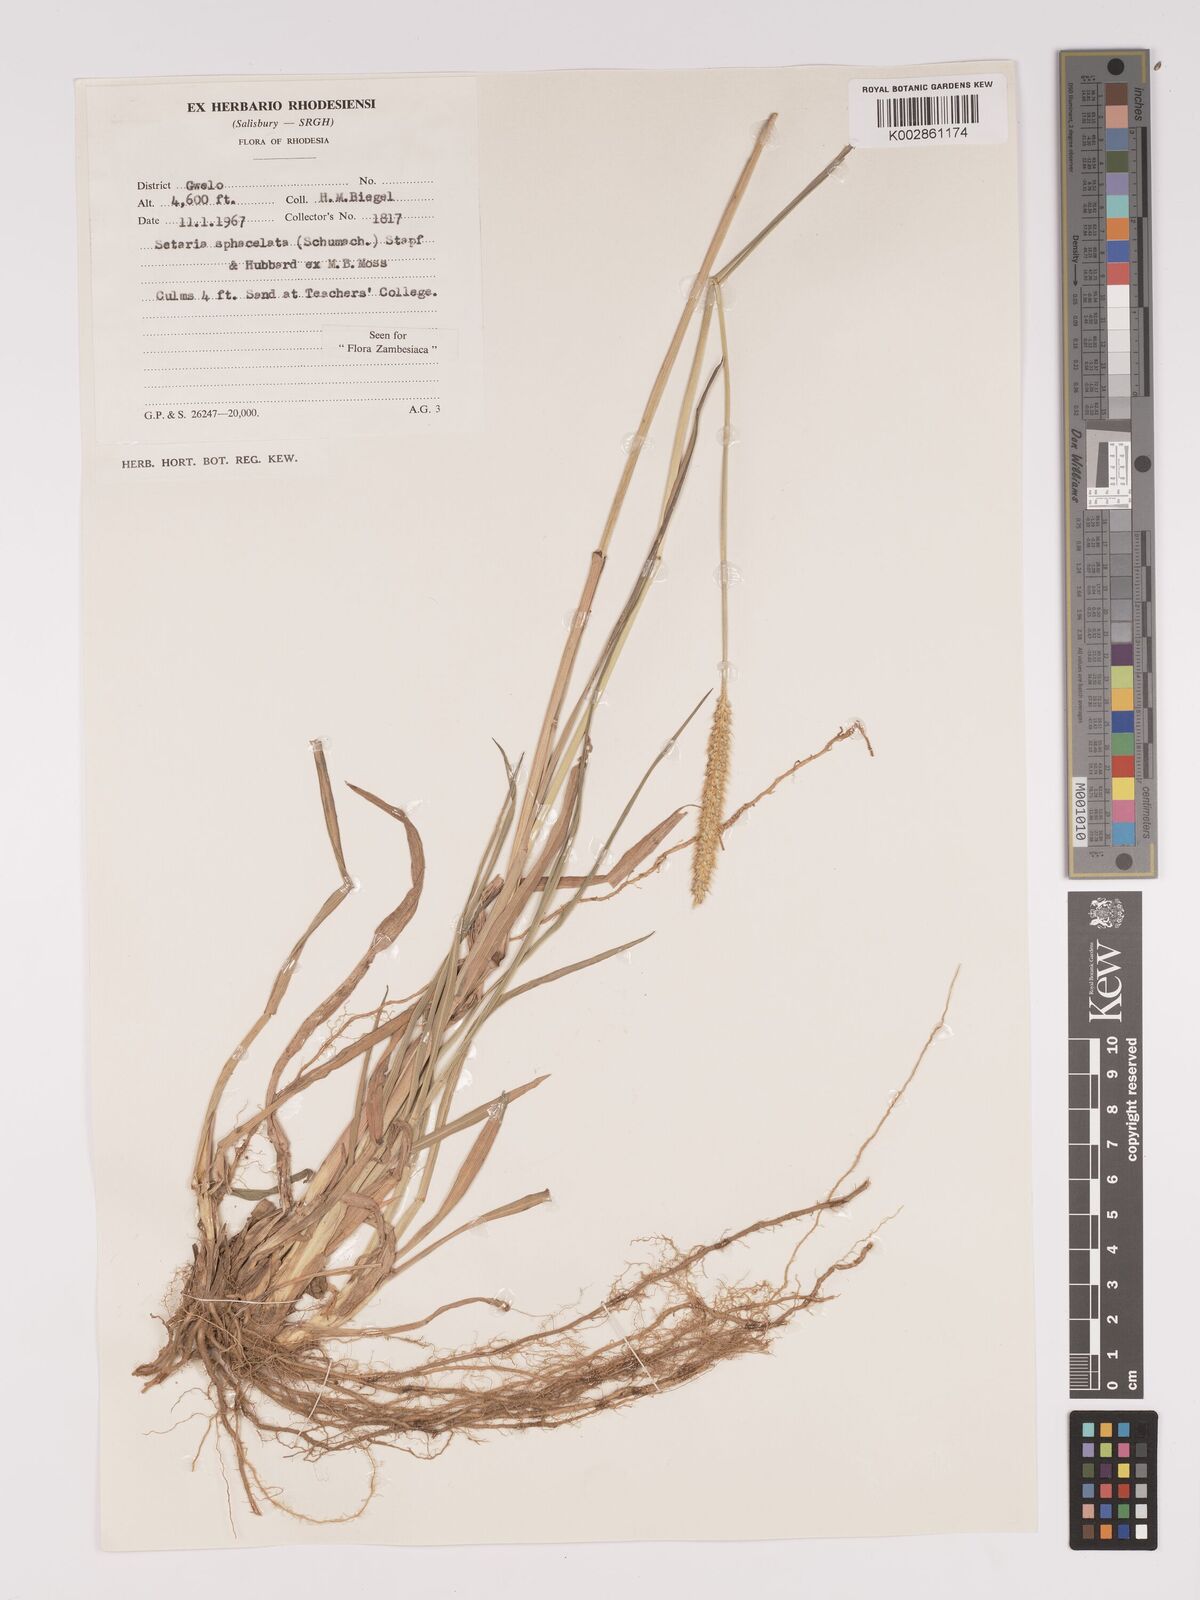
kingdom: Plantae
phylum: Tracheophyta
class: Liliopsida
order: Poales
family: Poaceae
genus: Setaria
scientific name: Setaria sphacelata
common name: African bristlegrass
